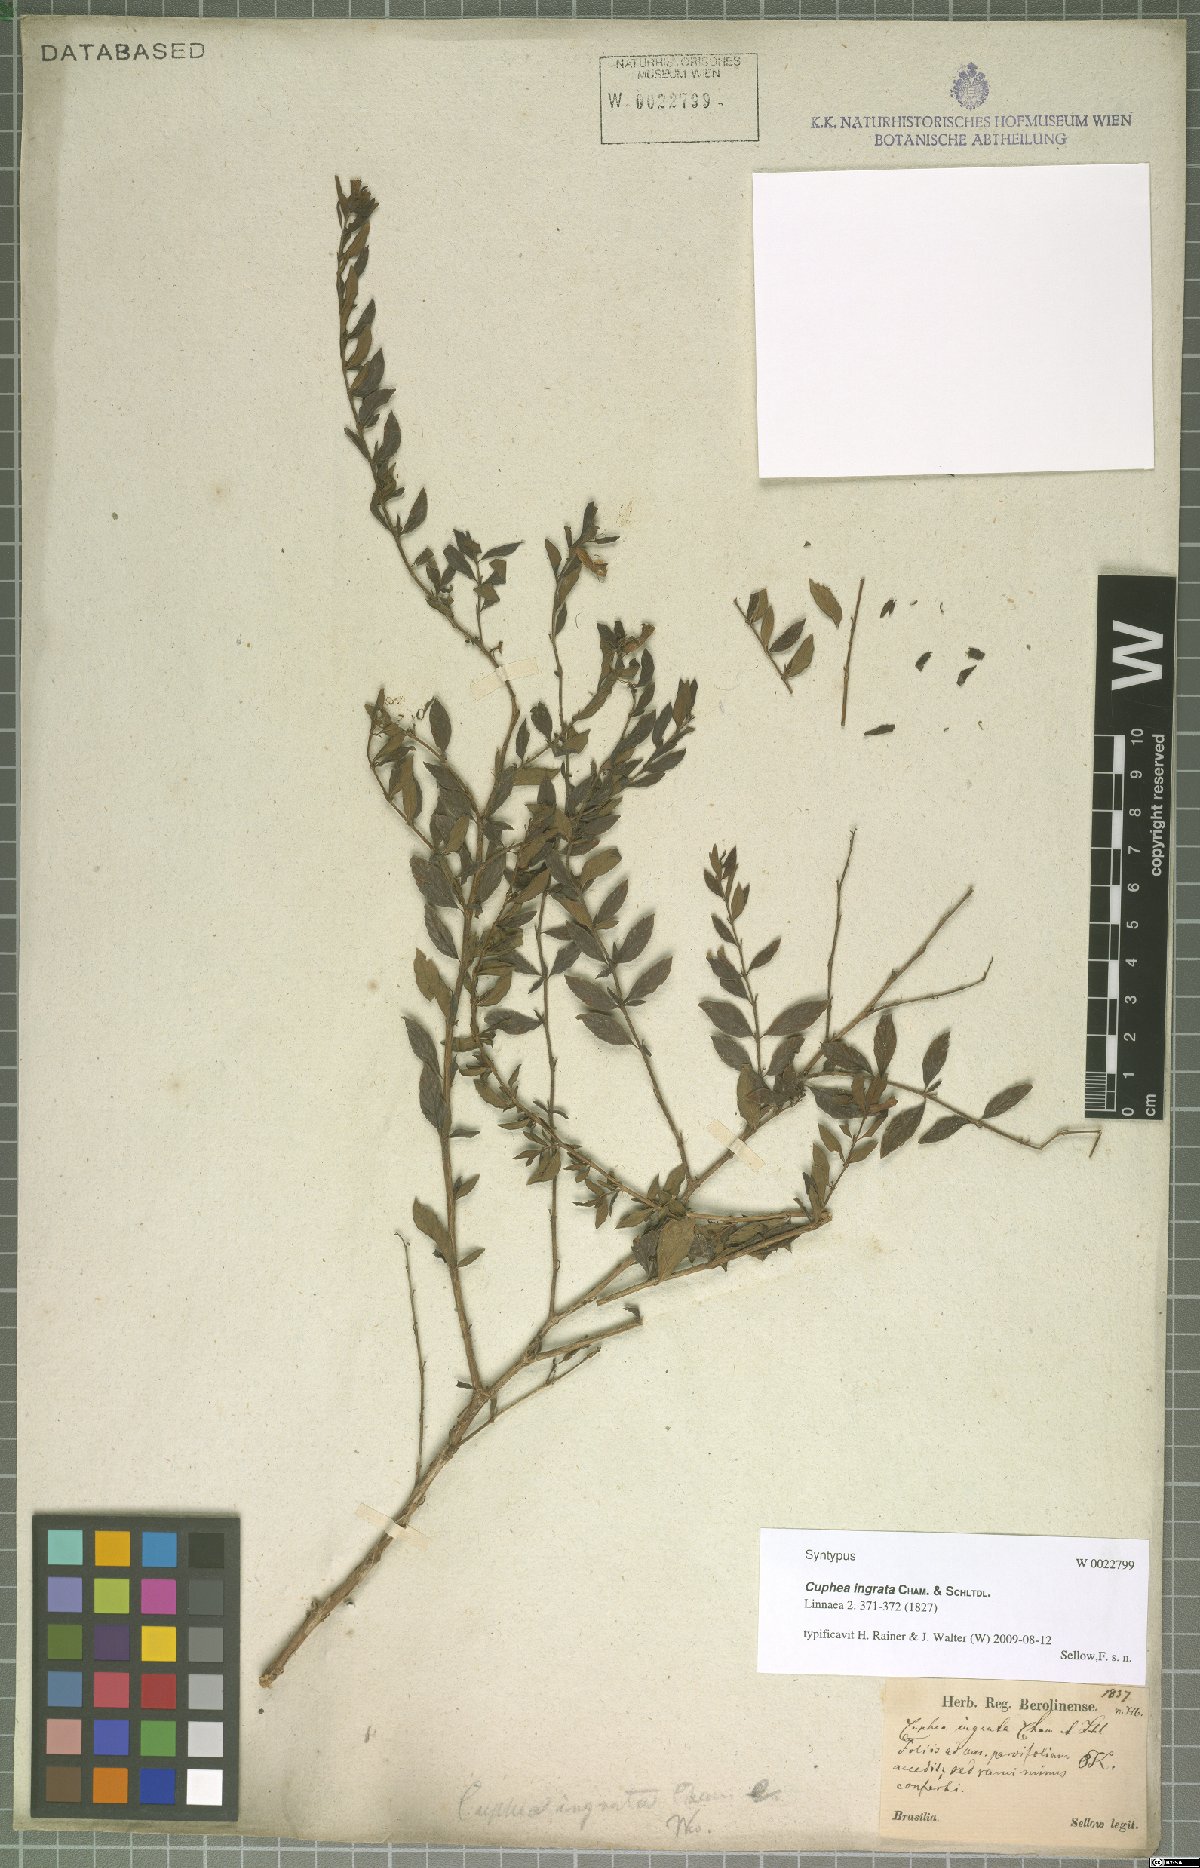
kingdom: Plantae
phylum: Tracheophyta
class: Magnoliopsida
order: Myrtales
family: Lythraceae
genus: Cuphea
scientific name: Cuphea ingrata
